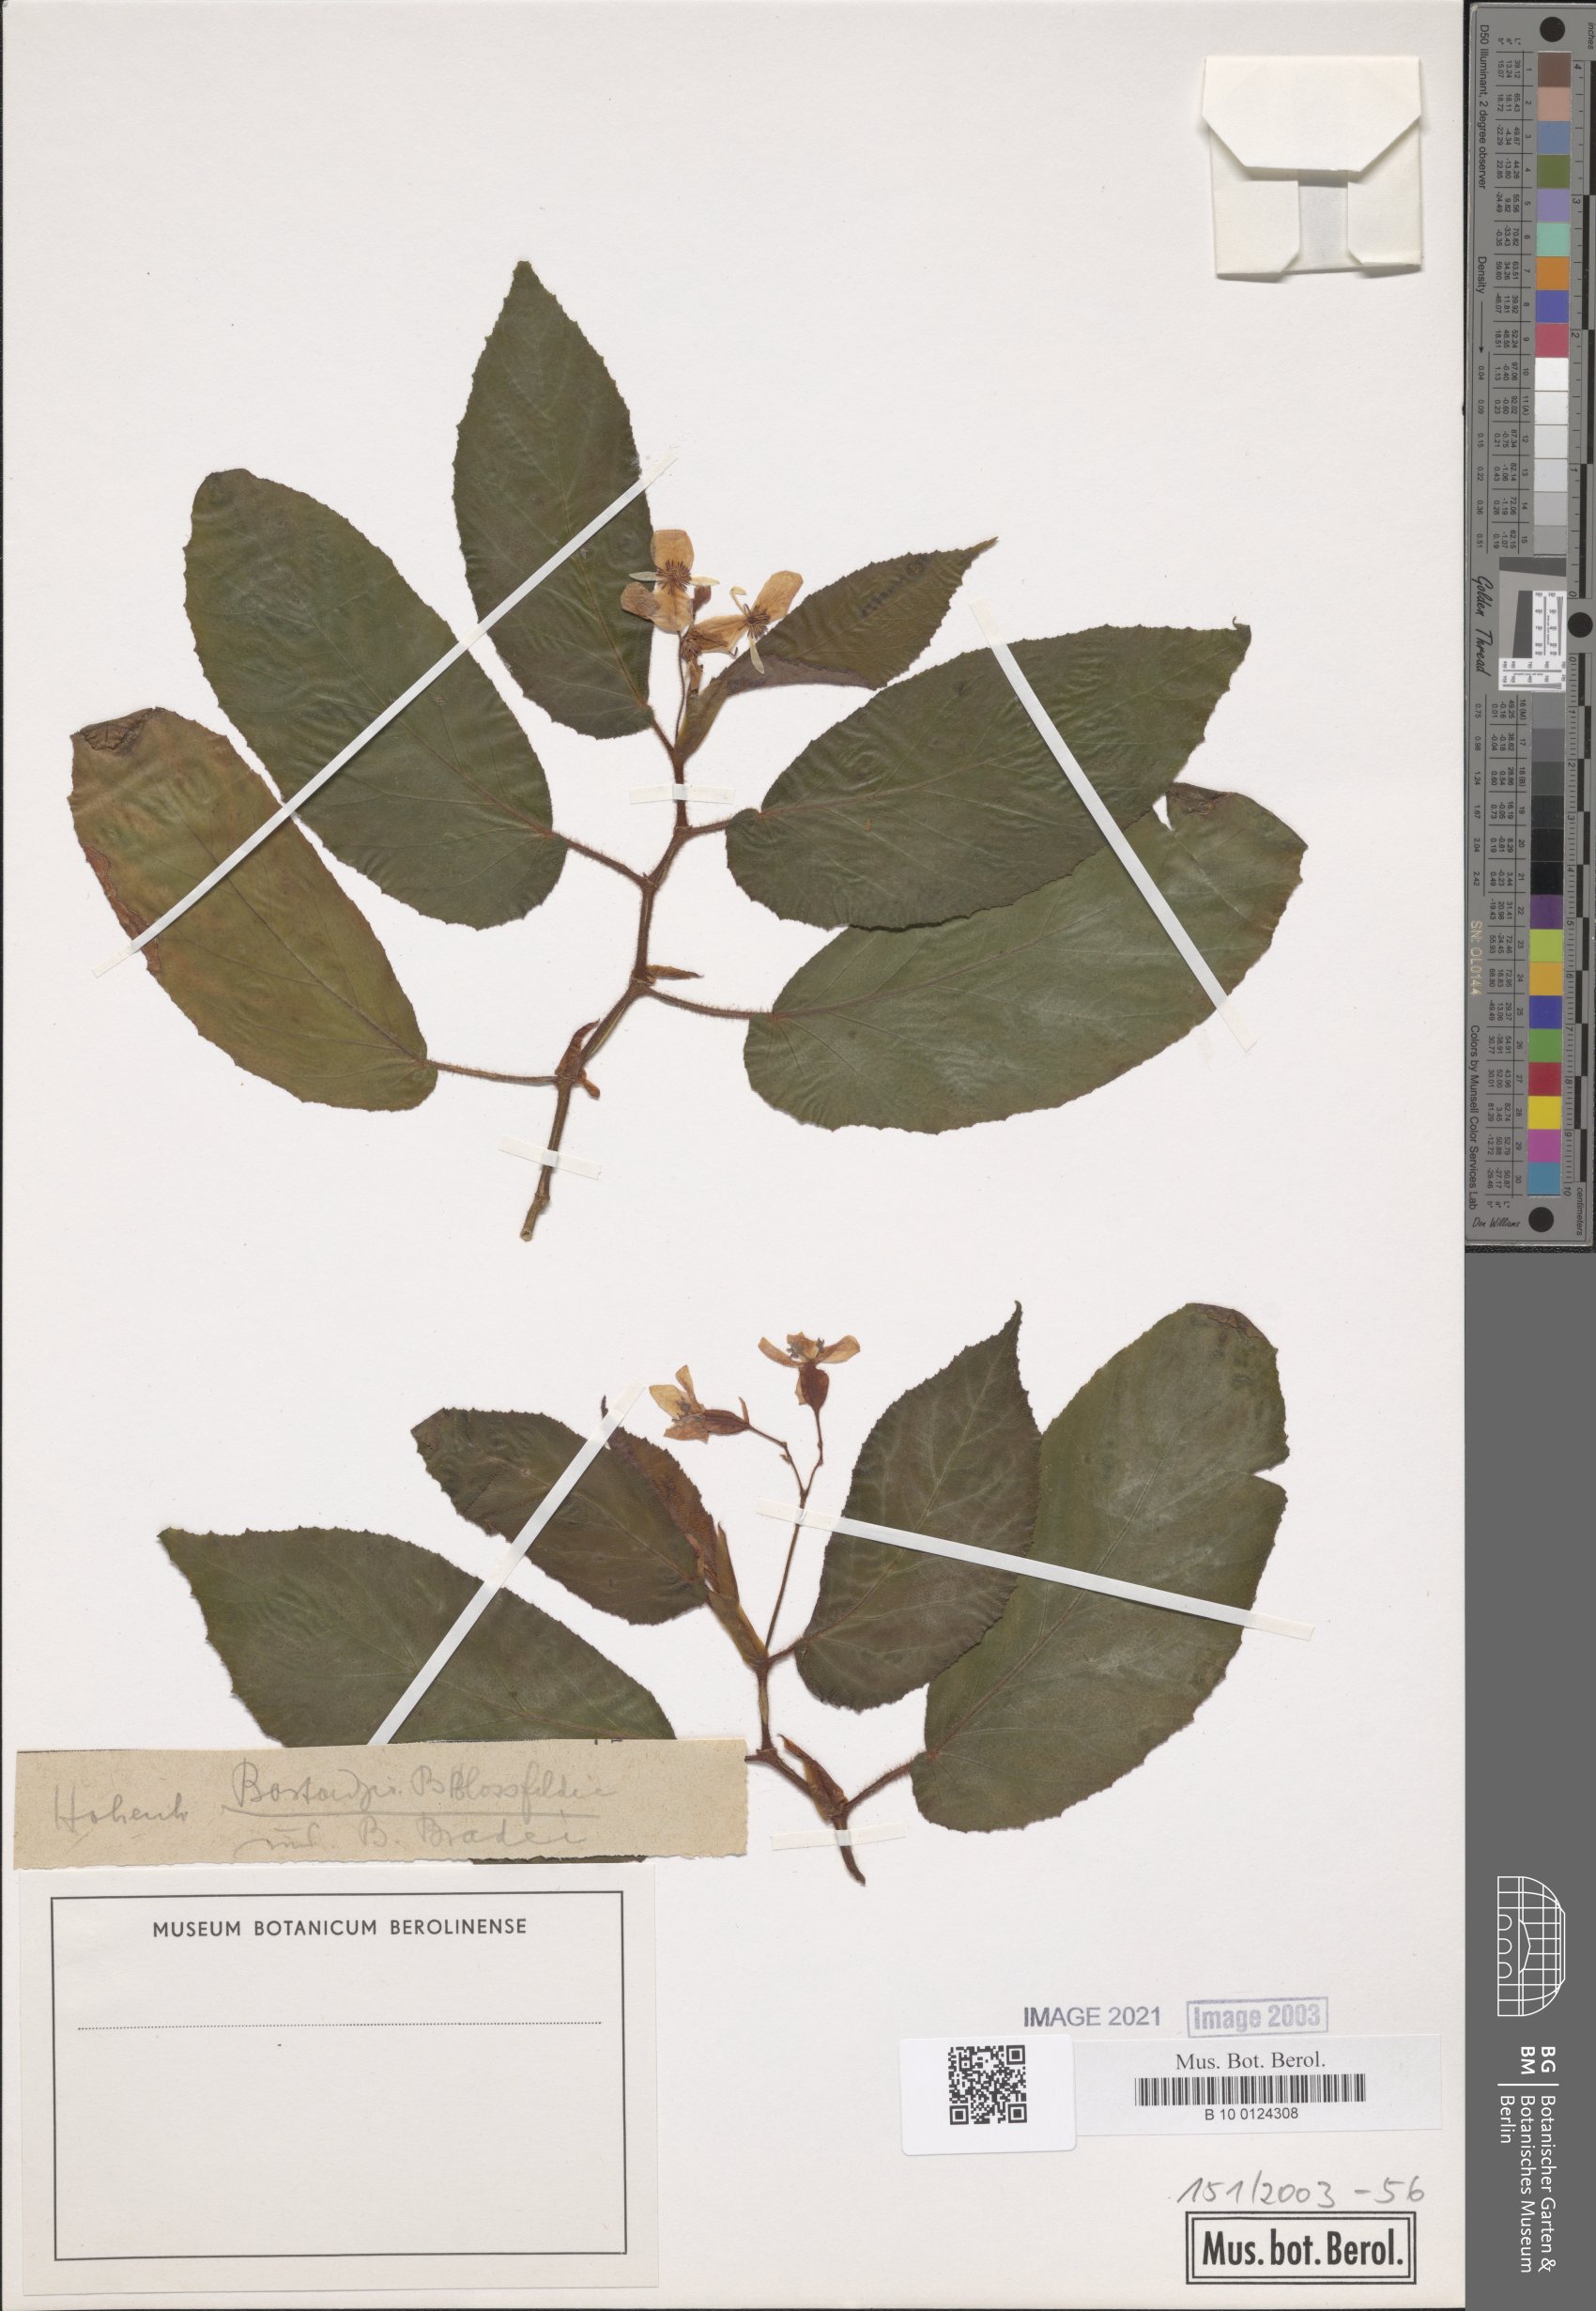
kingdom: Plantae
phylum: Tracheophyta
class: Magnoliopsida
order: Cucurbitales
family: Begoniaceae
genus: Begonia
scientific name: Begonia bradei
